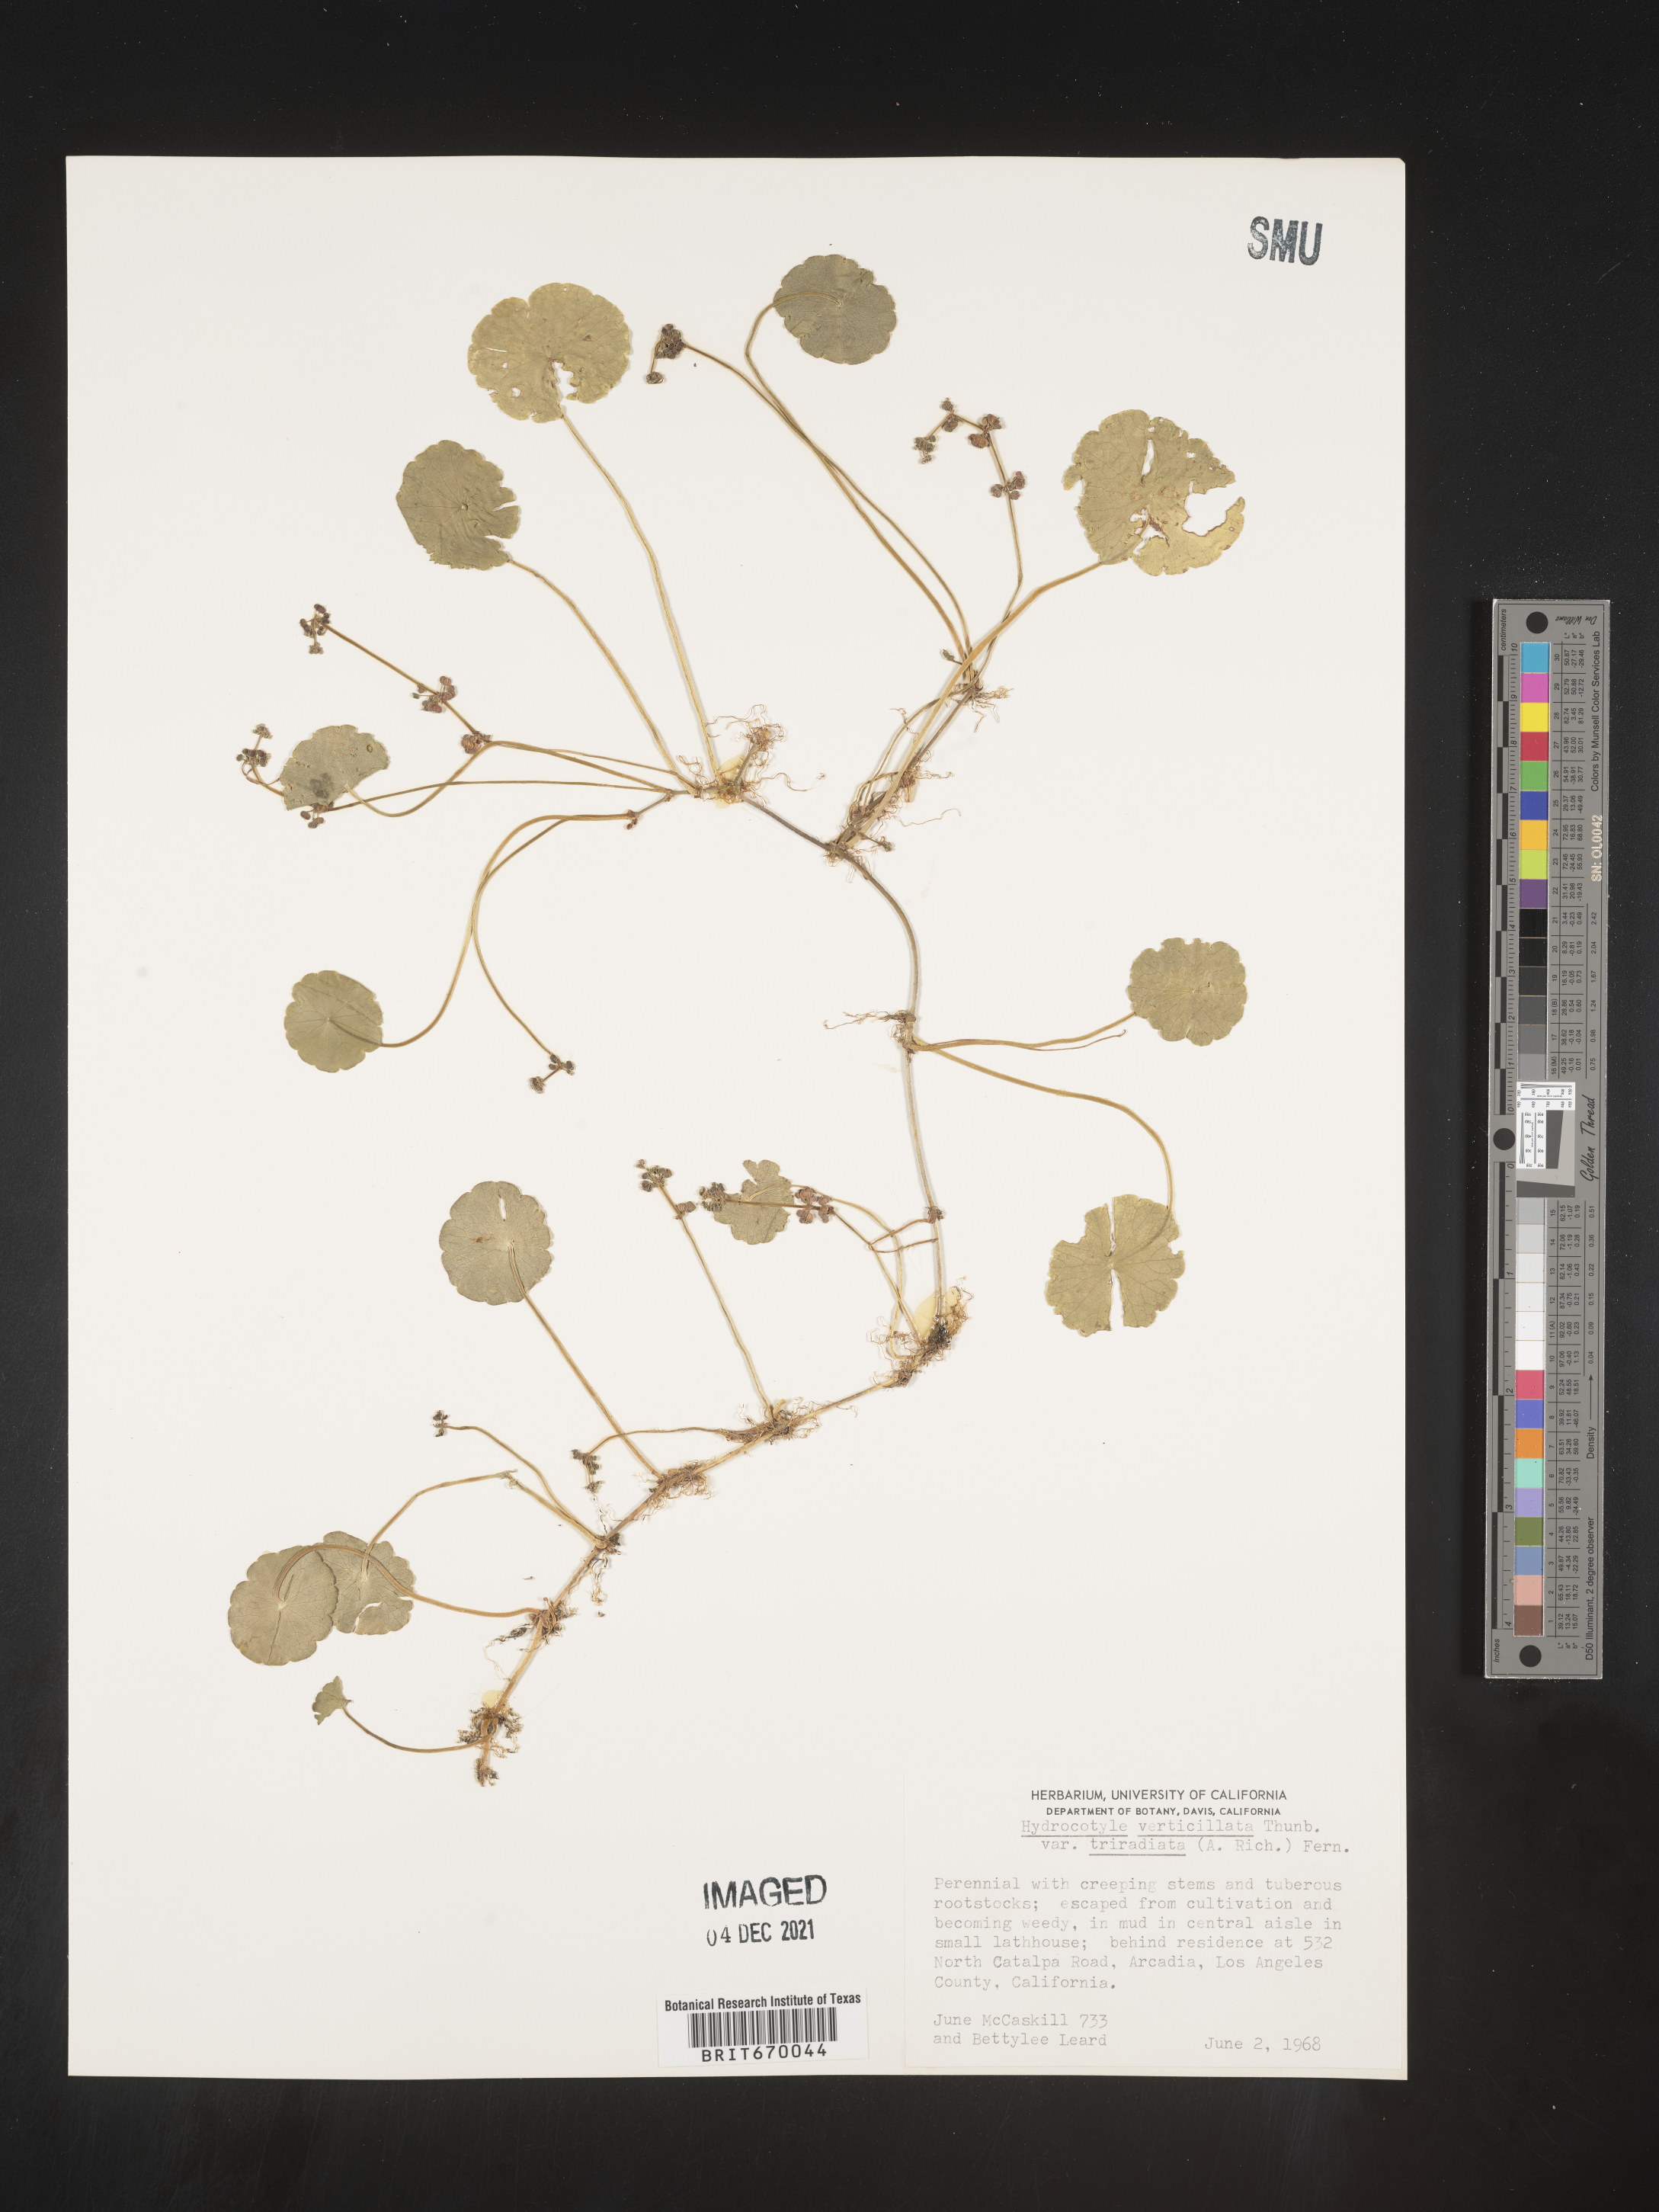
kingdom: Plantae
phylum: Tracheophyta
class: Magnoliopsida
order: Apiales
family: Araliaceae
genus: Hydrocotyle
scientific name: Hydrocotyle verticillata
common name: Whorled marshpennywort
